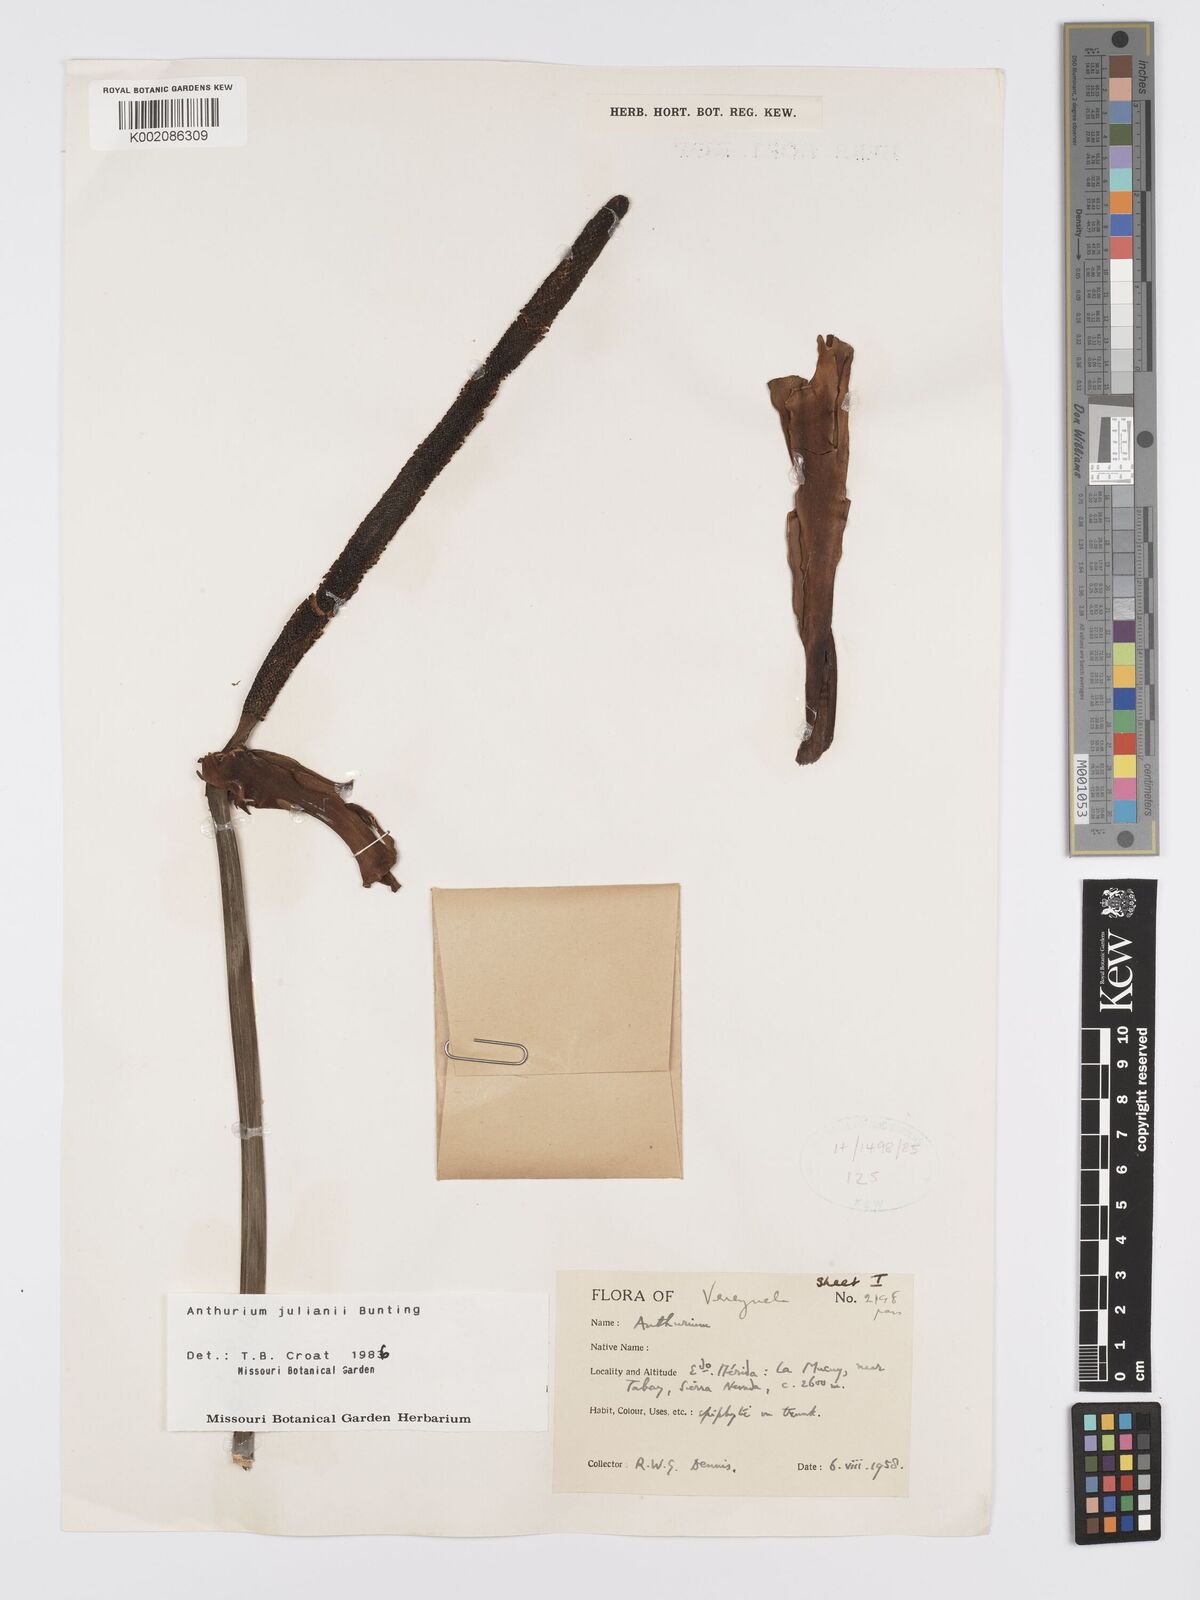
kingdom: Plantae
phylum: Tracheophyta
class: Liliopsida
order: Alismatales
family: Araceae
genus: Anthurium
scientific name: Anthurium julianii
